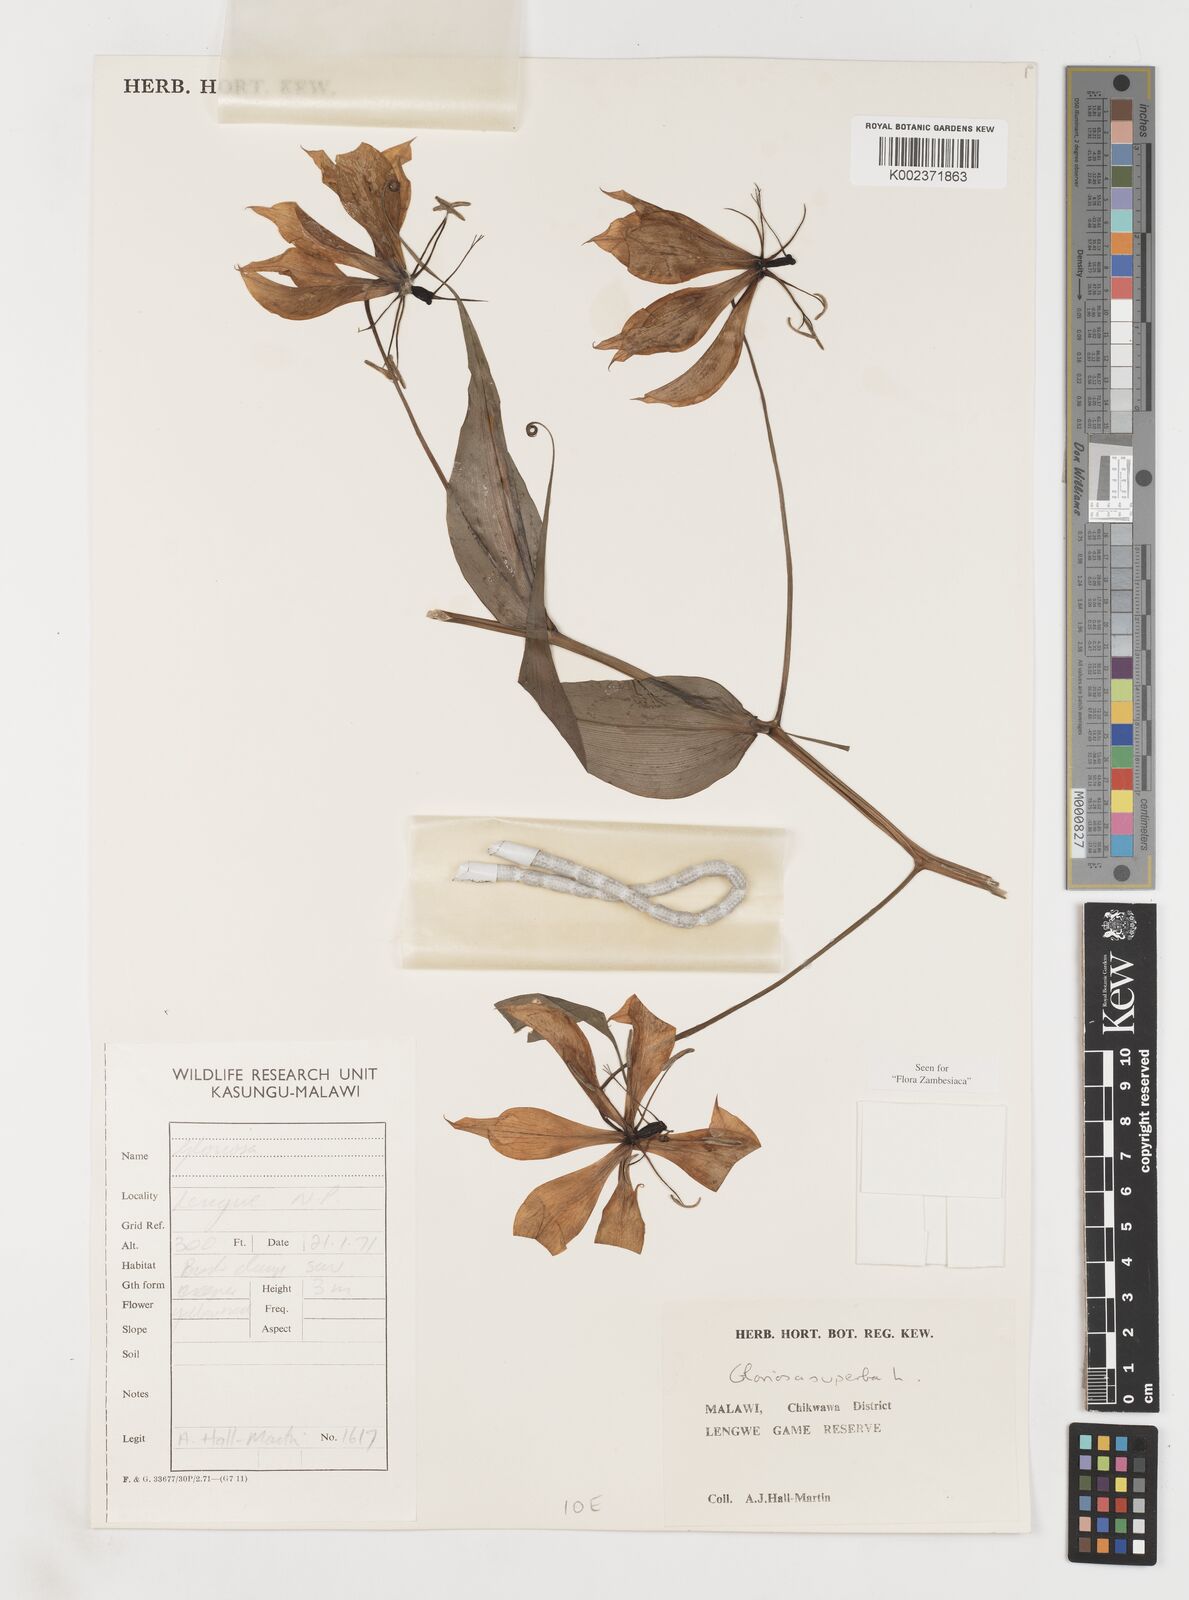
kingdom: Plantae
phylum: Tracheophyta
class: Liliopsida
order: Liliales
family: Colchicaceae
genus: Gloriosa
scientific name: Gloriosa simplex
